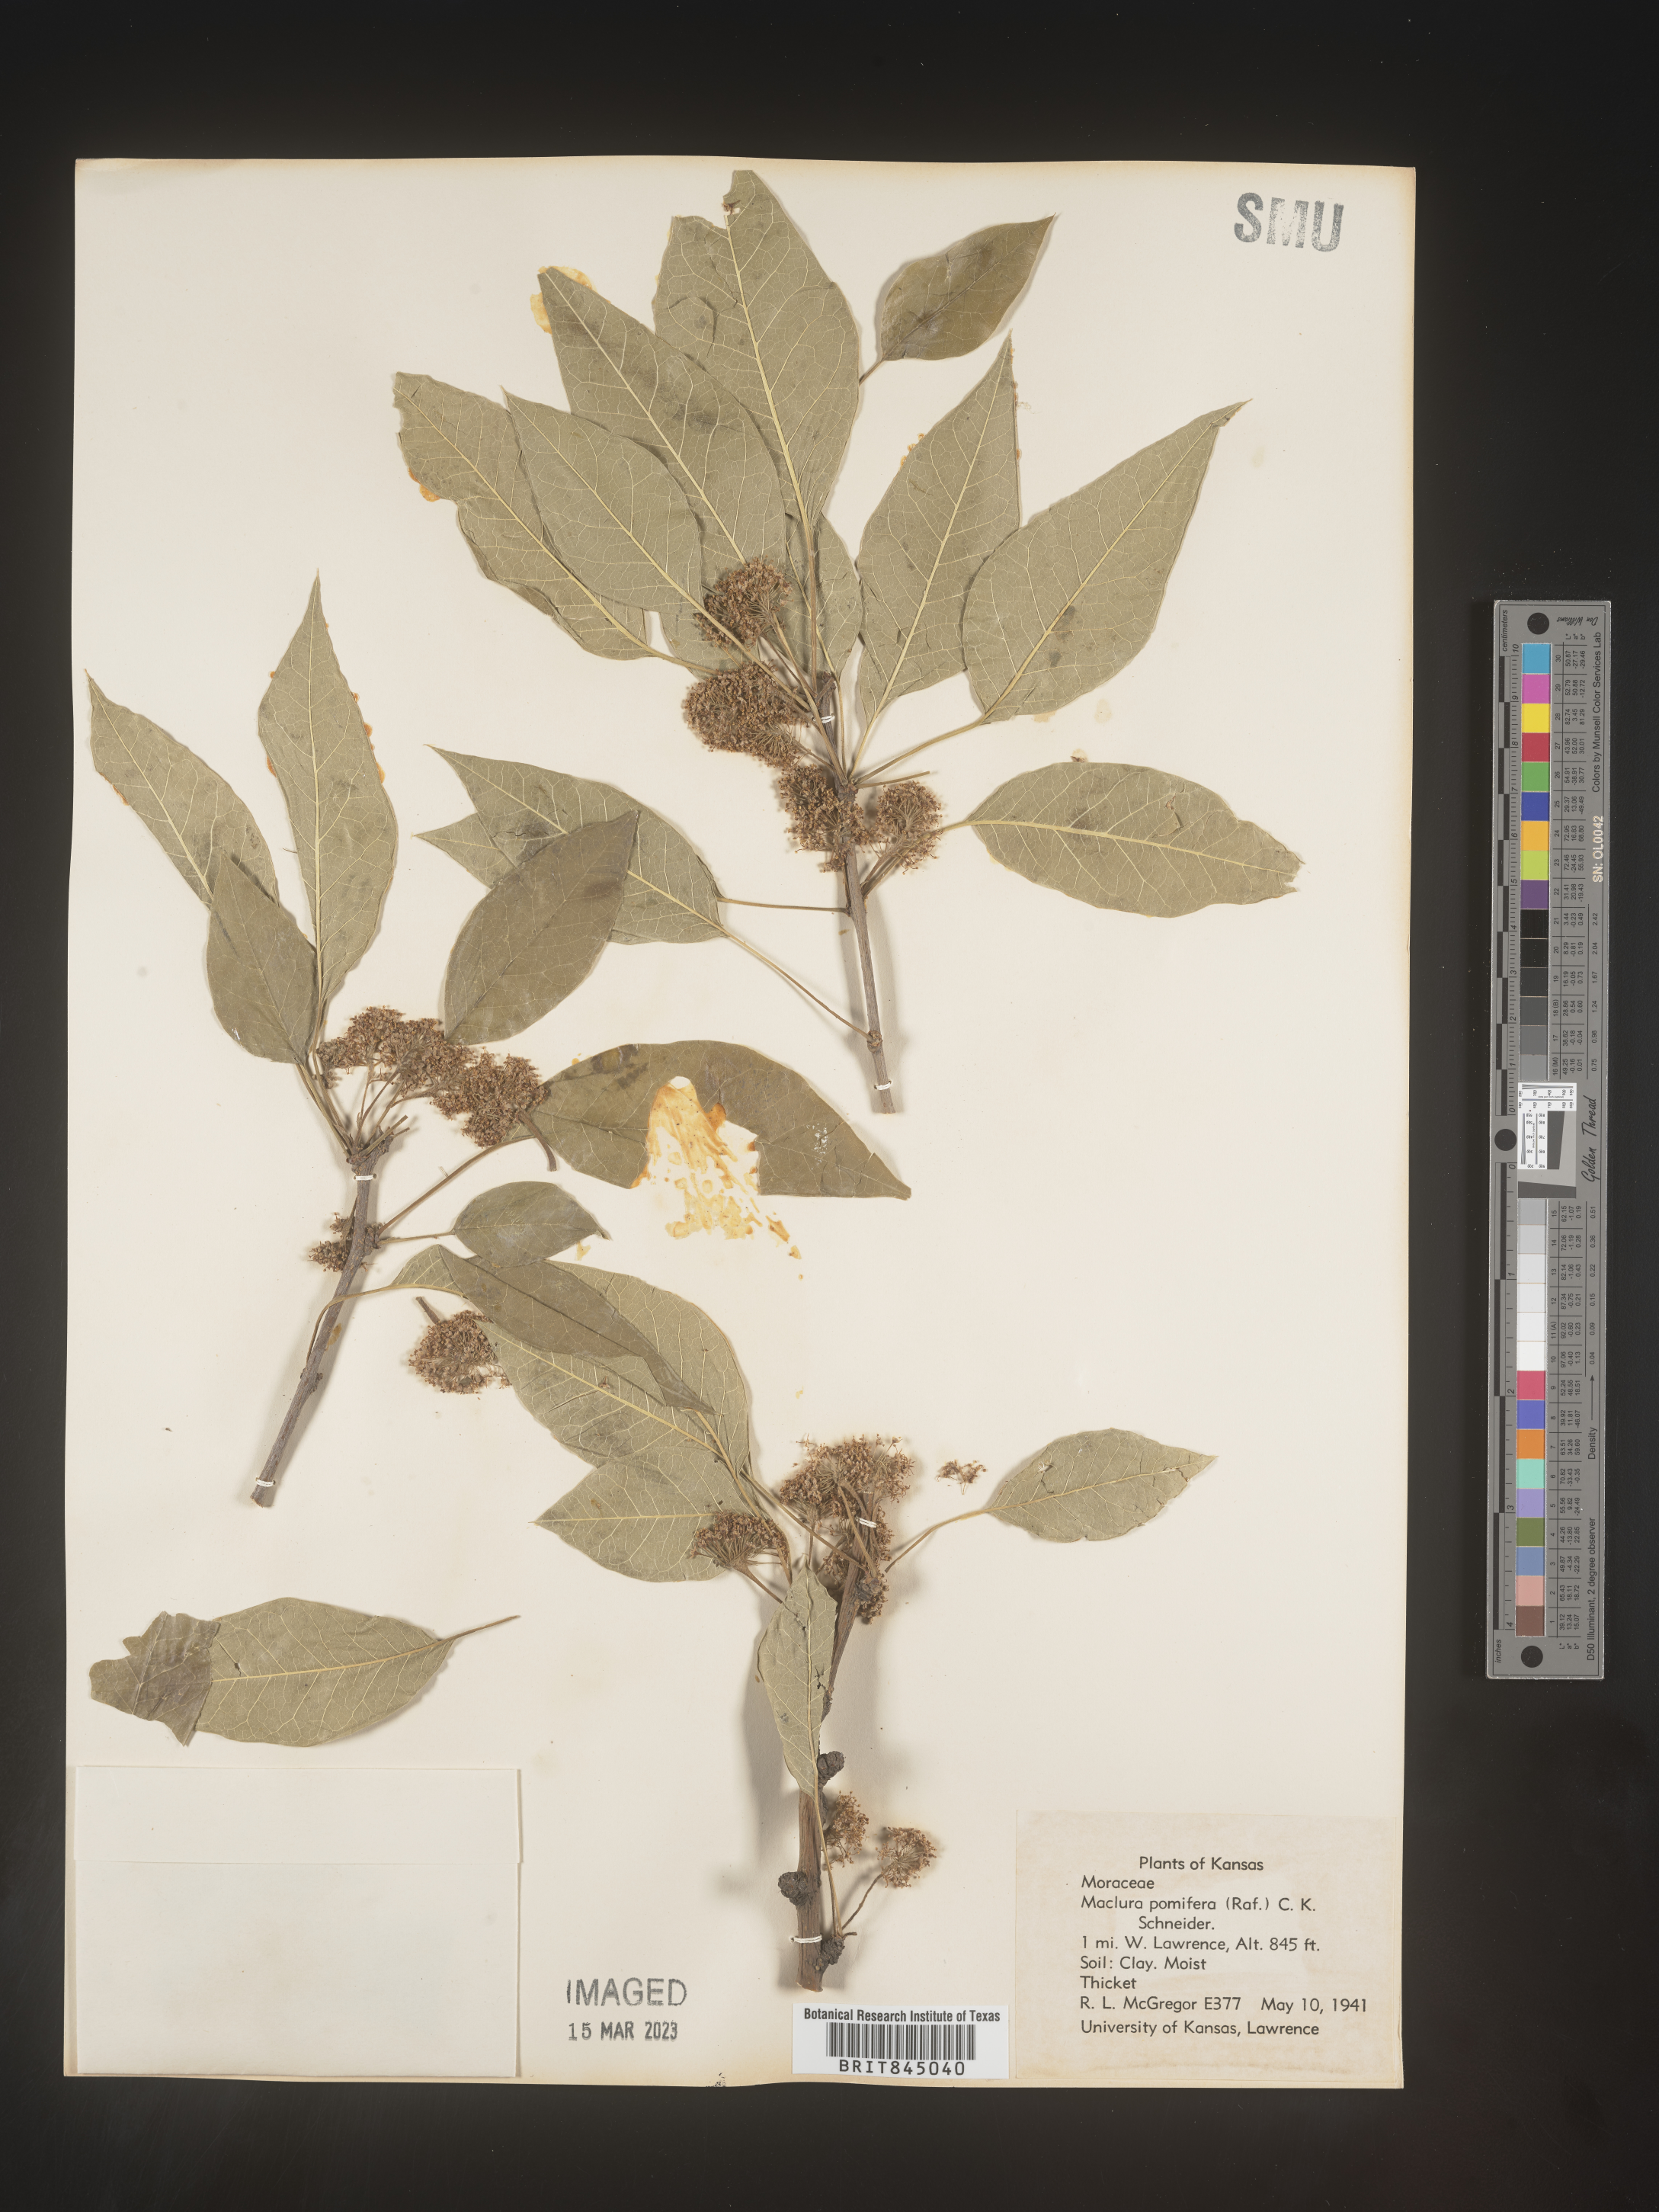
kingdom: Plantae
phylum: Tracheophyta
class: Magnoliopsida
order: Rosales
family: Moraceae
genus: Maclura
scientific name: Maclura pomifera
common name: Osage-orange
